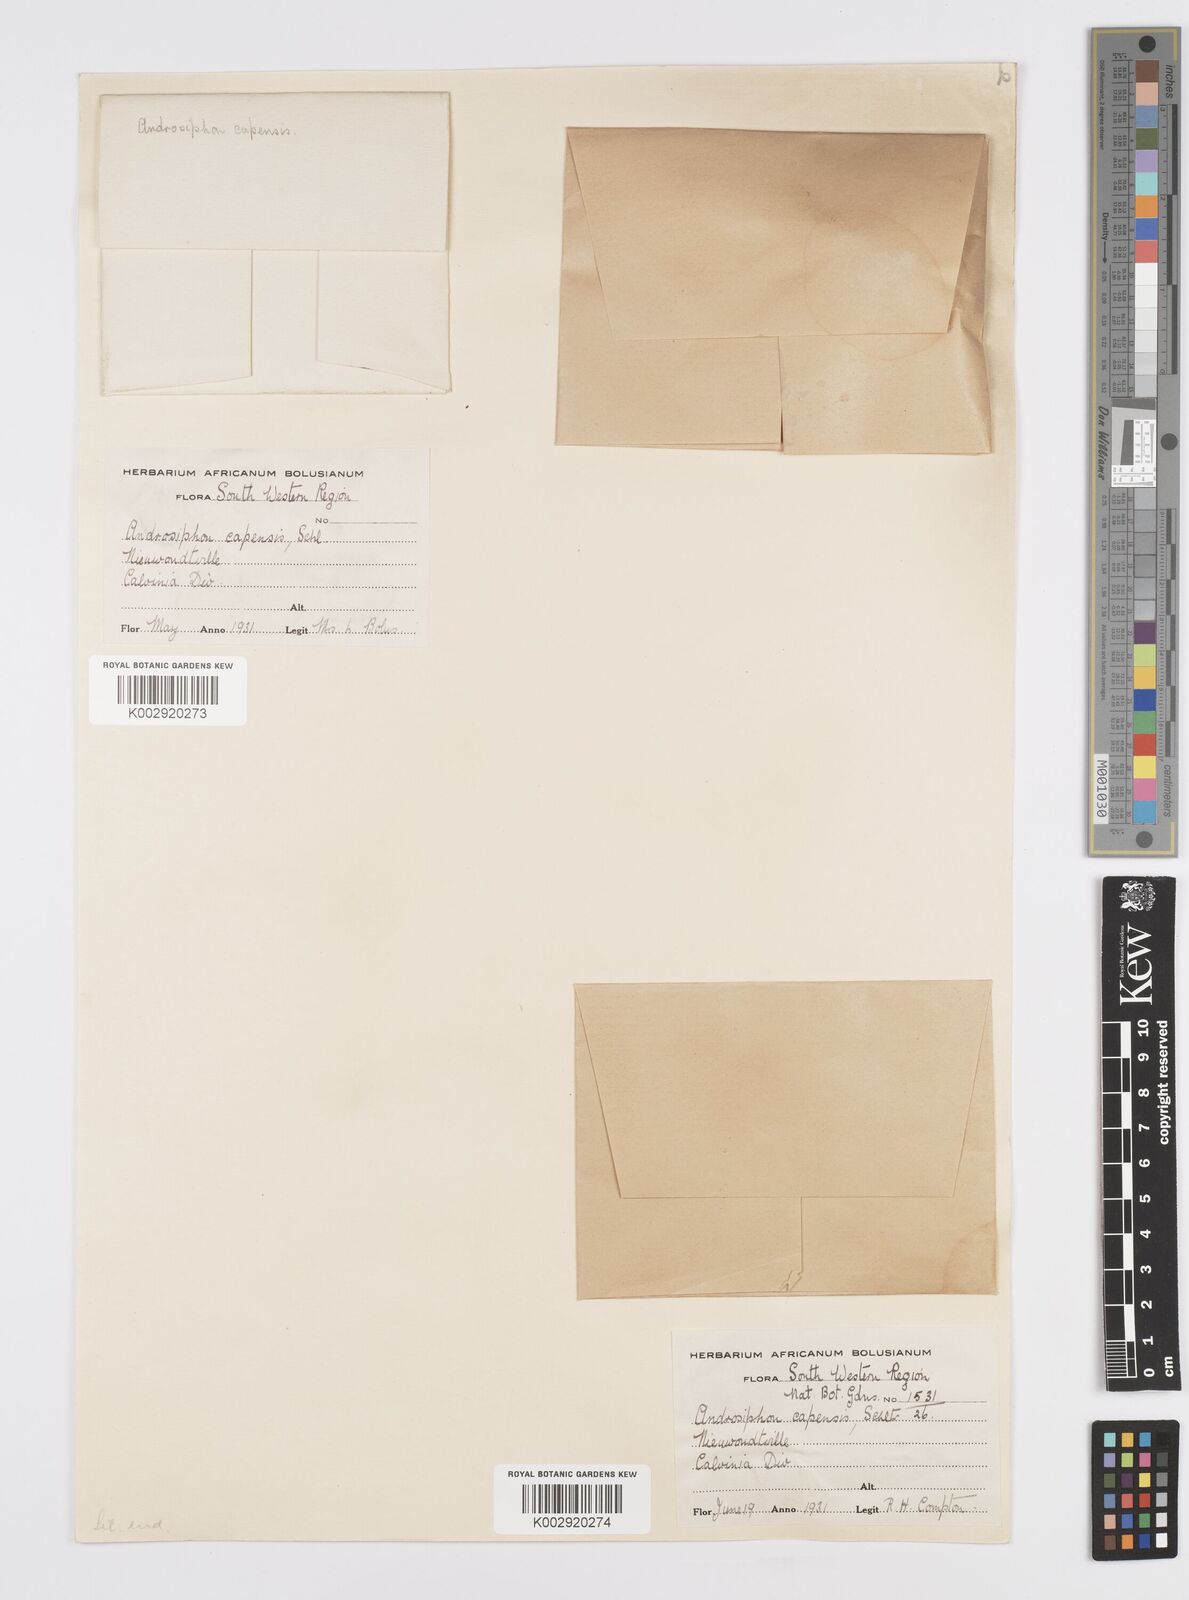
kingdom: Plantae
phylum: Tracheophyta
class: Liliopsida
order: Asparagales
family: Asparagaceae
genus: Daubenya
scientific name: Daubenya capensis
